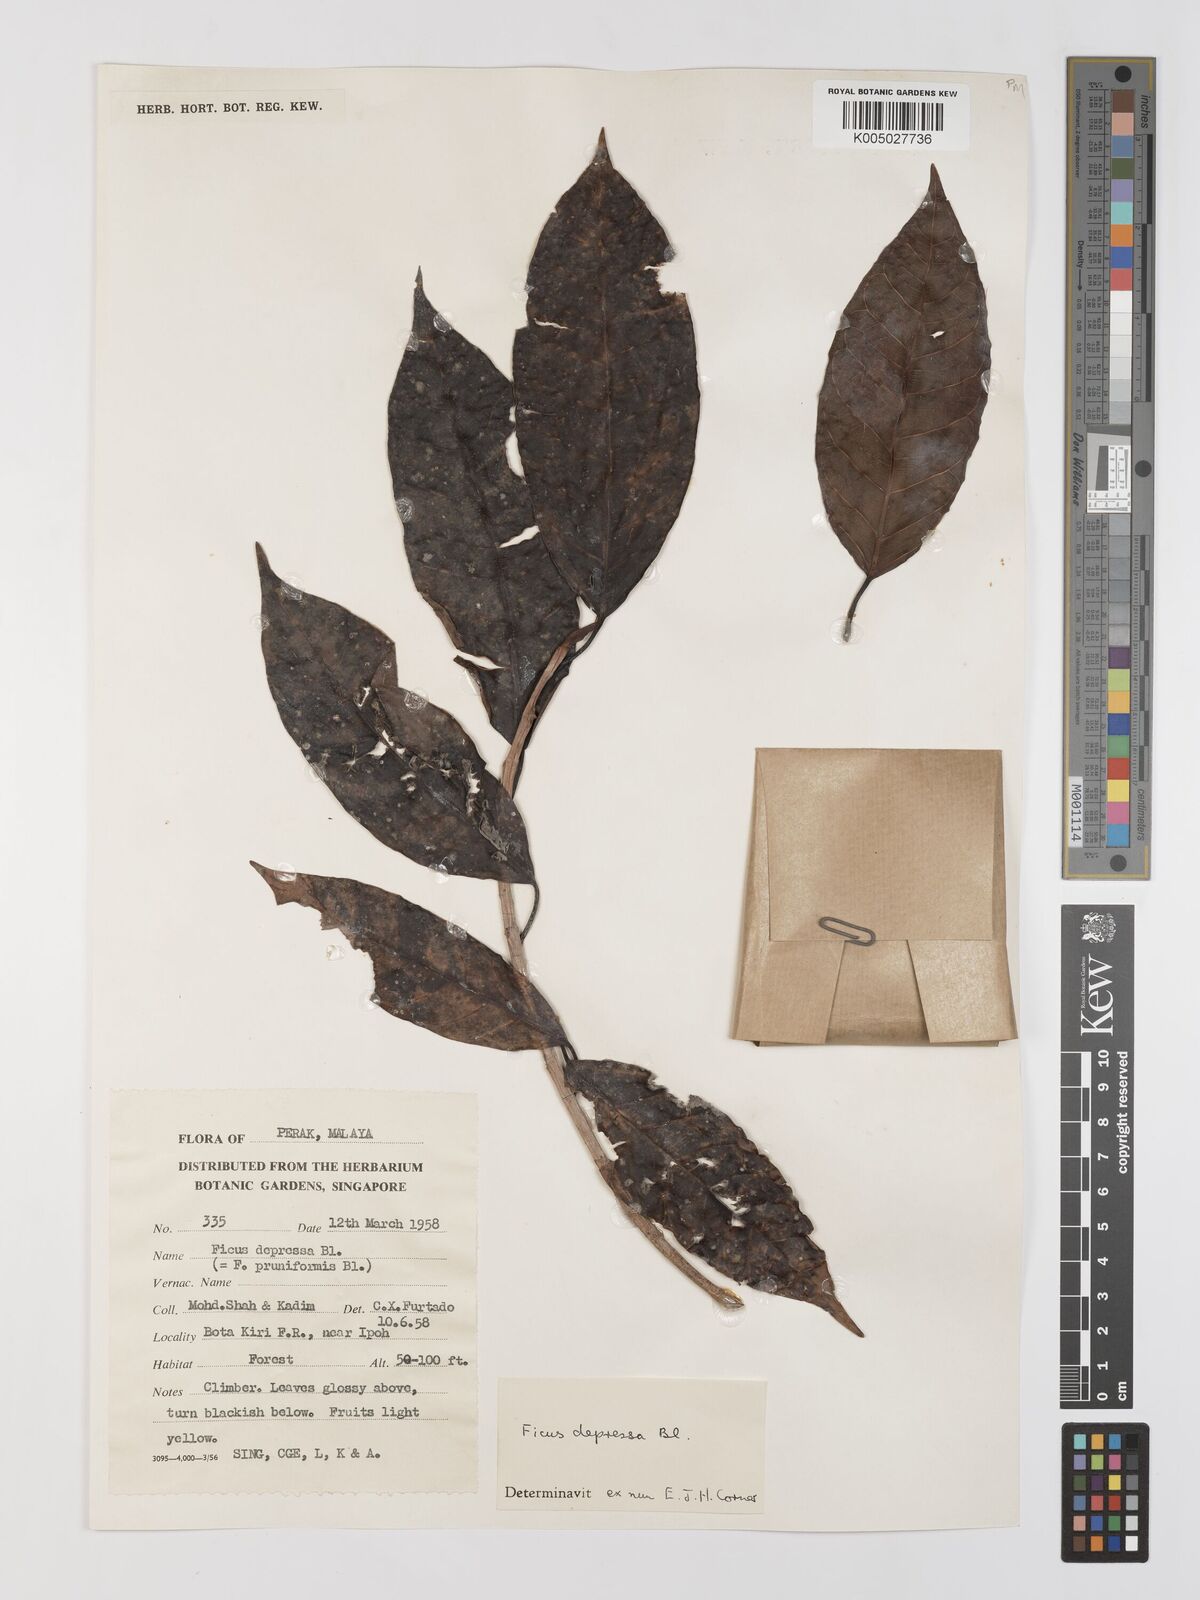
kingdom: Plantae
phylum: Tracheophyta
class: Magnoliopsida
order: Rosales
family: Moraceae
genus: Ficus
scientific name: Ficus
